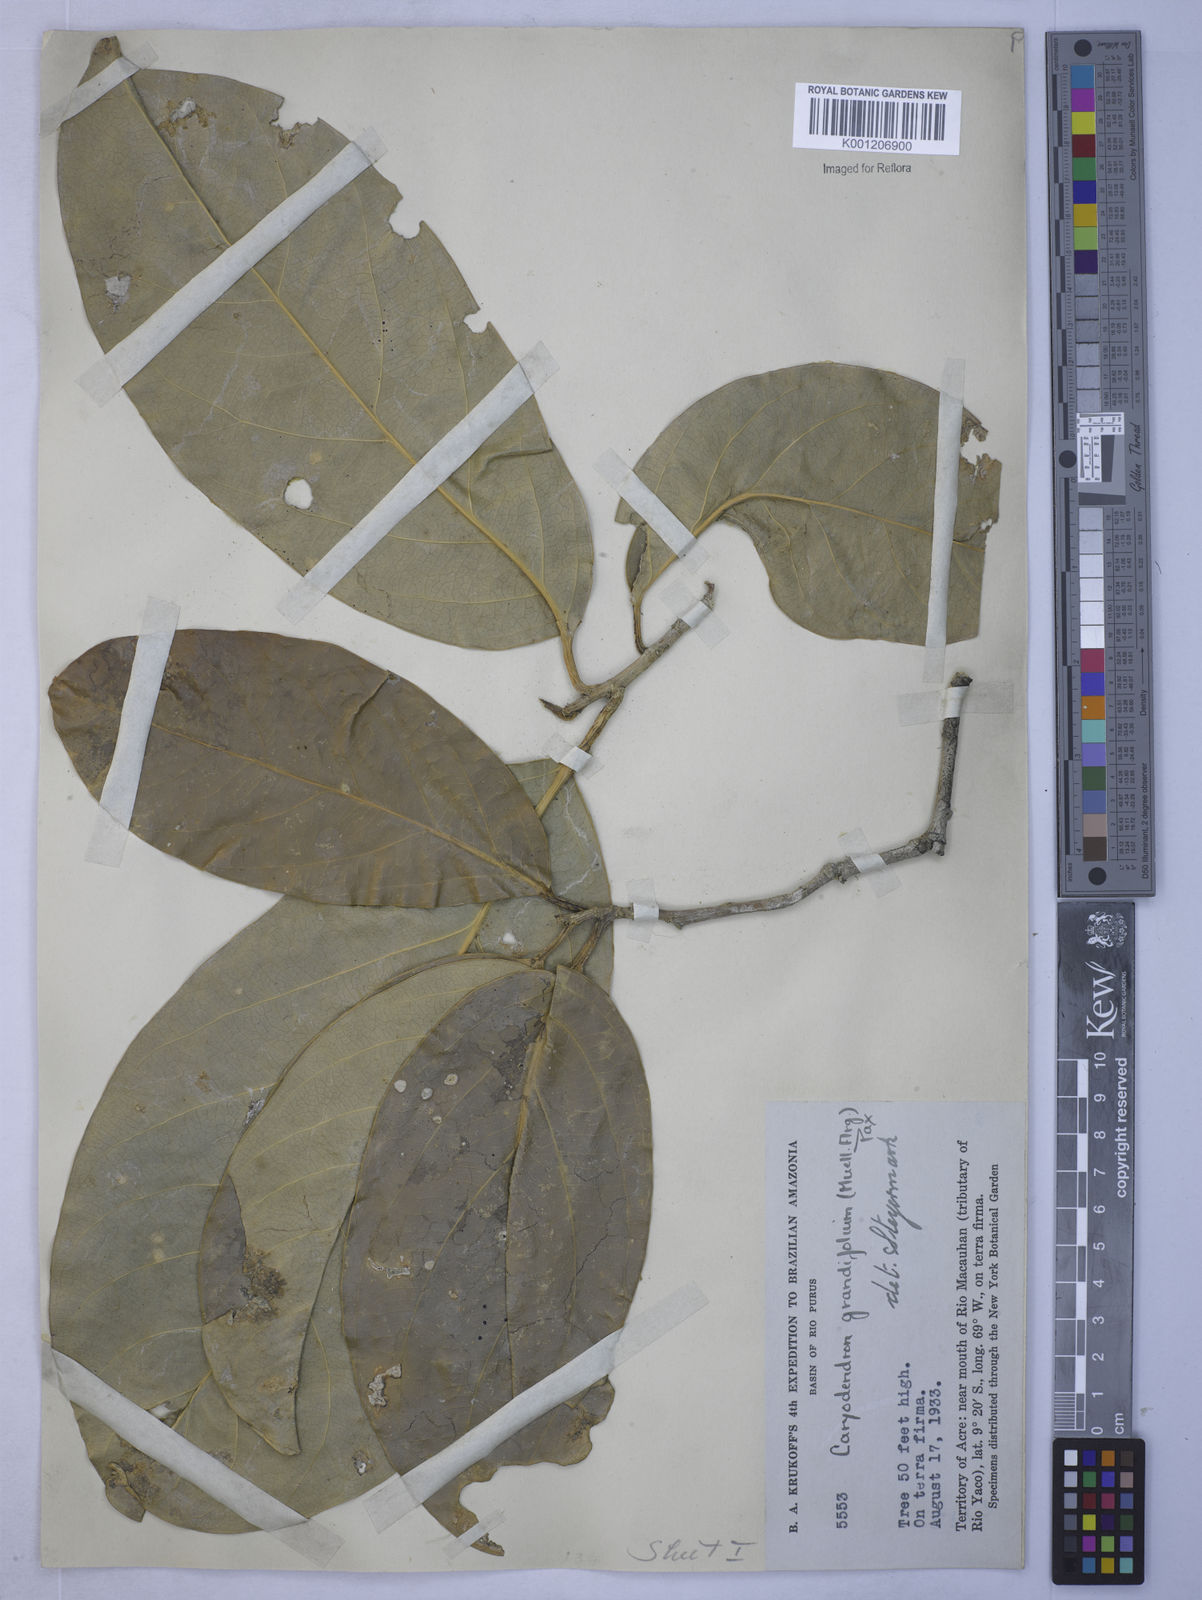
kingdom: Plantae
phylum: Tracheophyta
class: Magnoliopsida
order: Malpighiales
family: Euphorbiaceae
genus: Caryodendron
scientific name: Caryodendron
